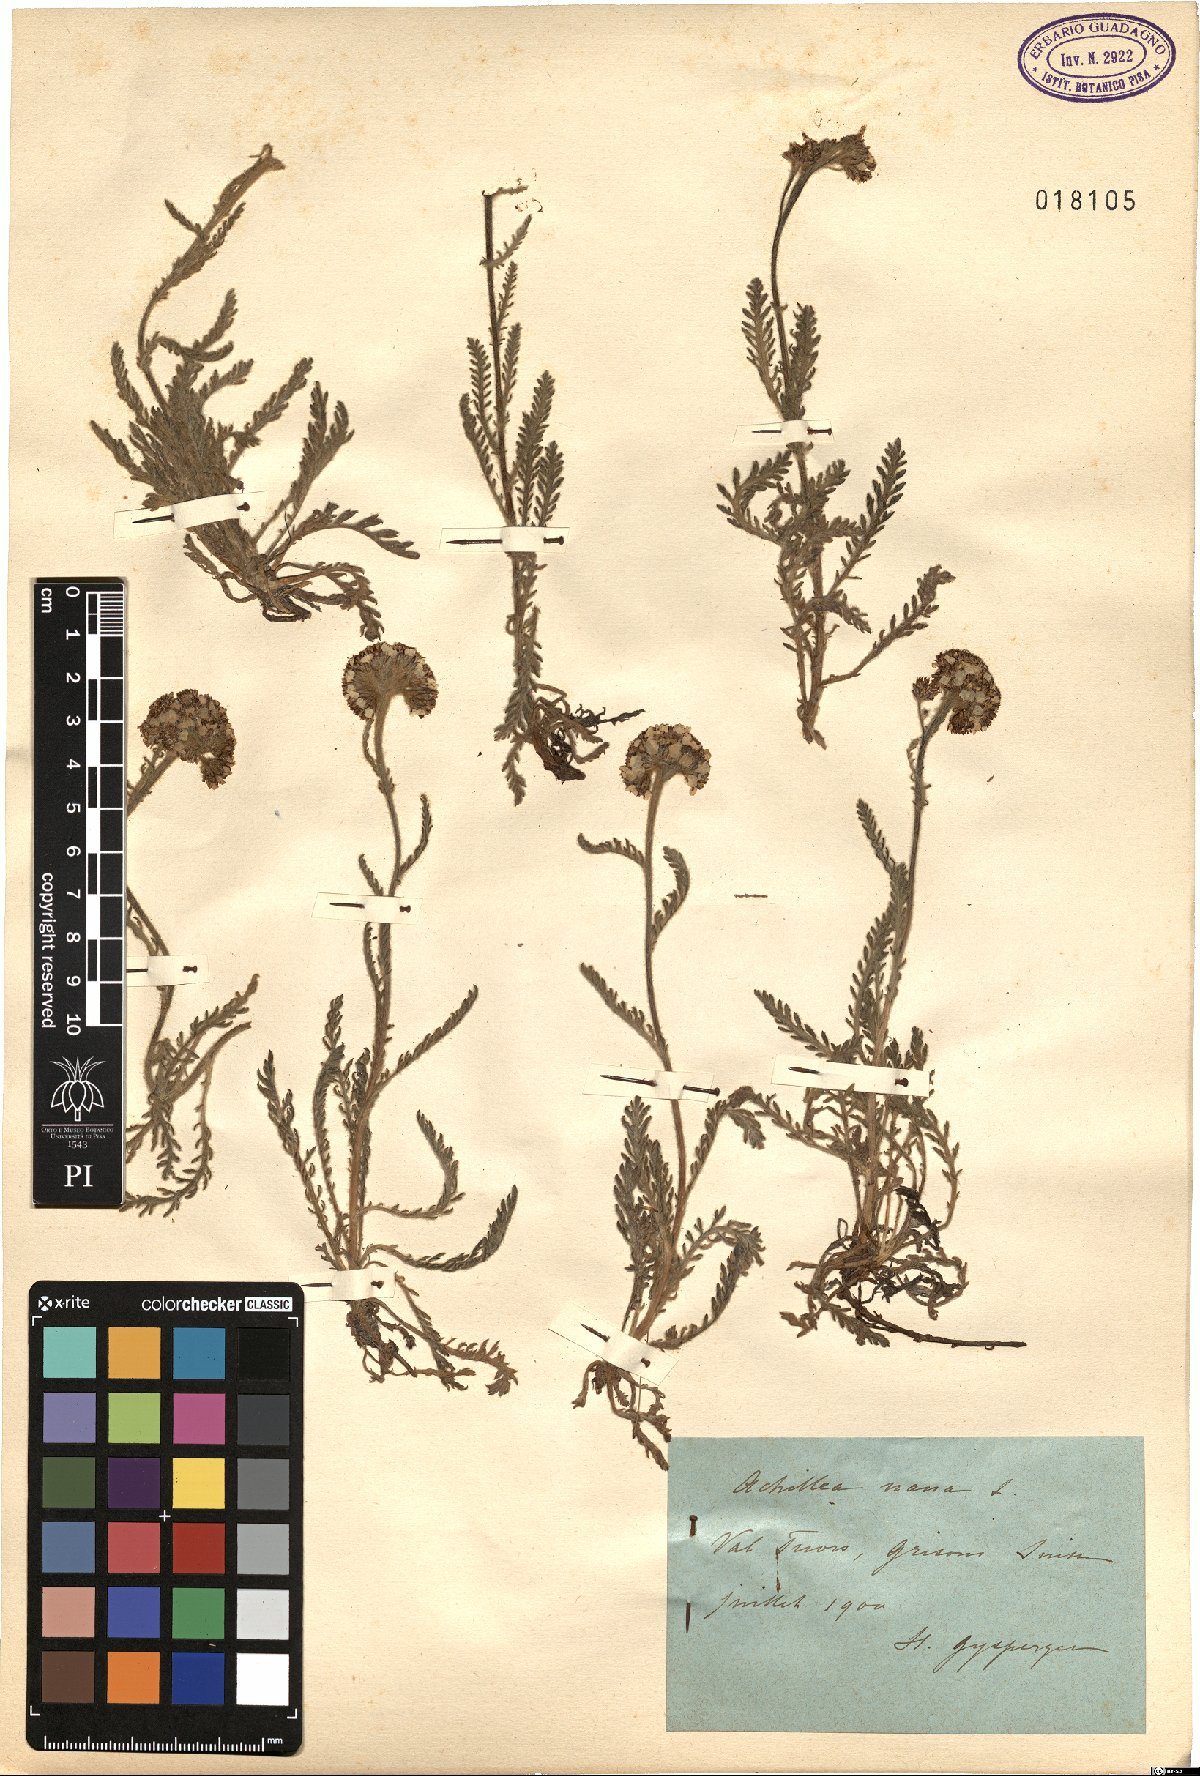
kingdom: Plantae
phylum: Tracheophyta
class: Magnoliopsida
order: Asterales
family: Asteraceae
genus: Achillea
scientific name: Achillea nana
